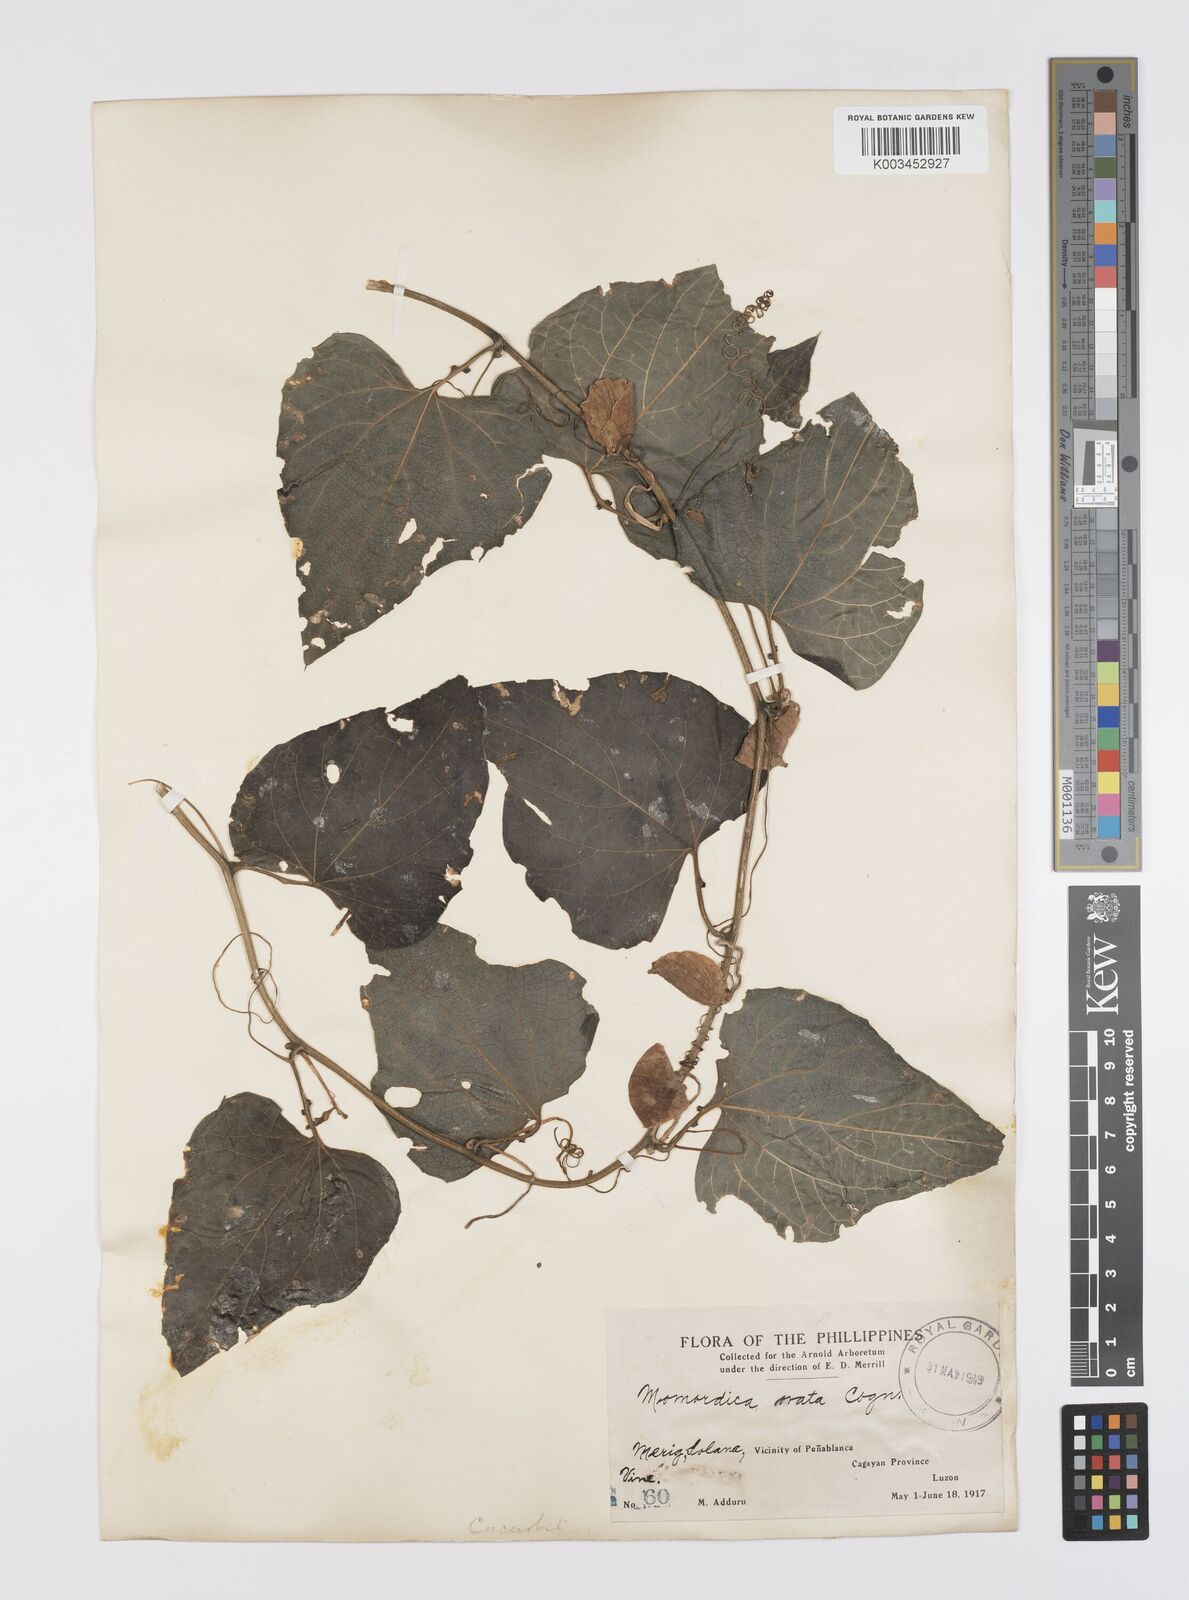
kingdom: Plantae
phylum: Tracheophyta
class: Magnoliopsida
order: Cucurbitales
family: Cucurbitaceae
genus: Momordica
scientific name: Momordica cochinchinensis
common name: Chinese bitter-cucumber
